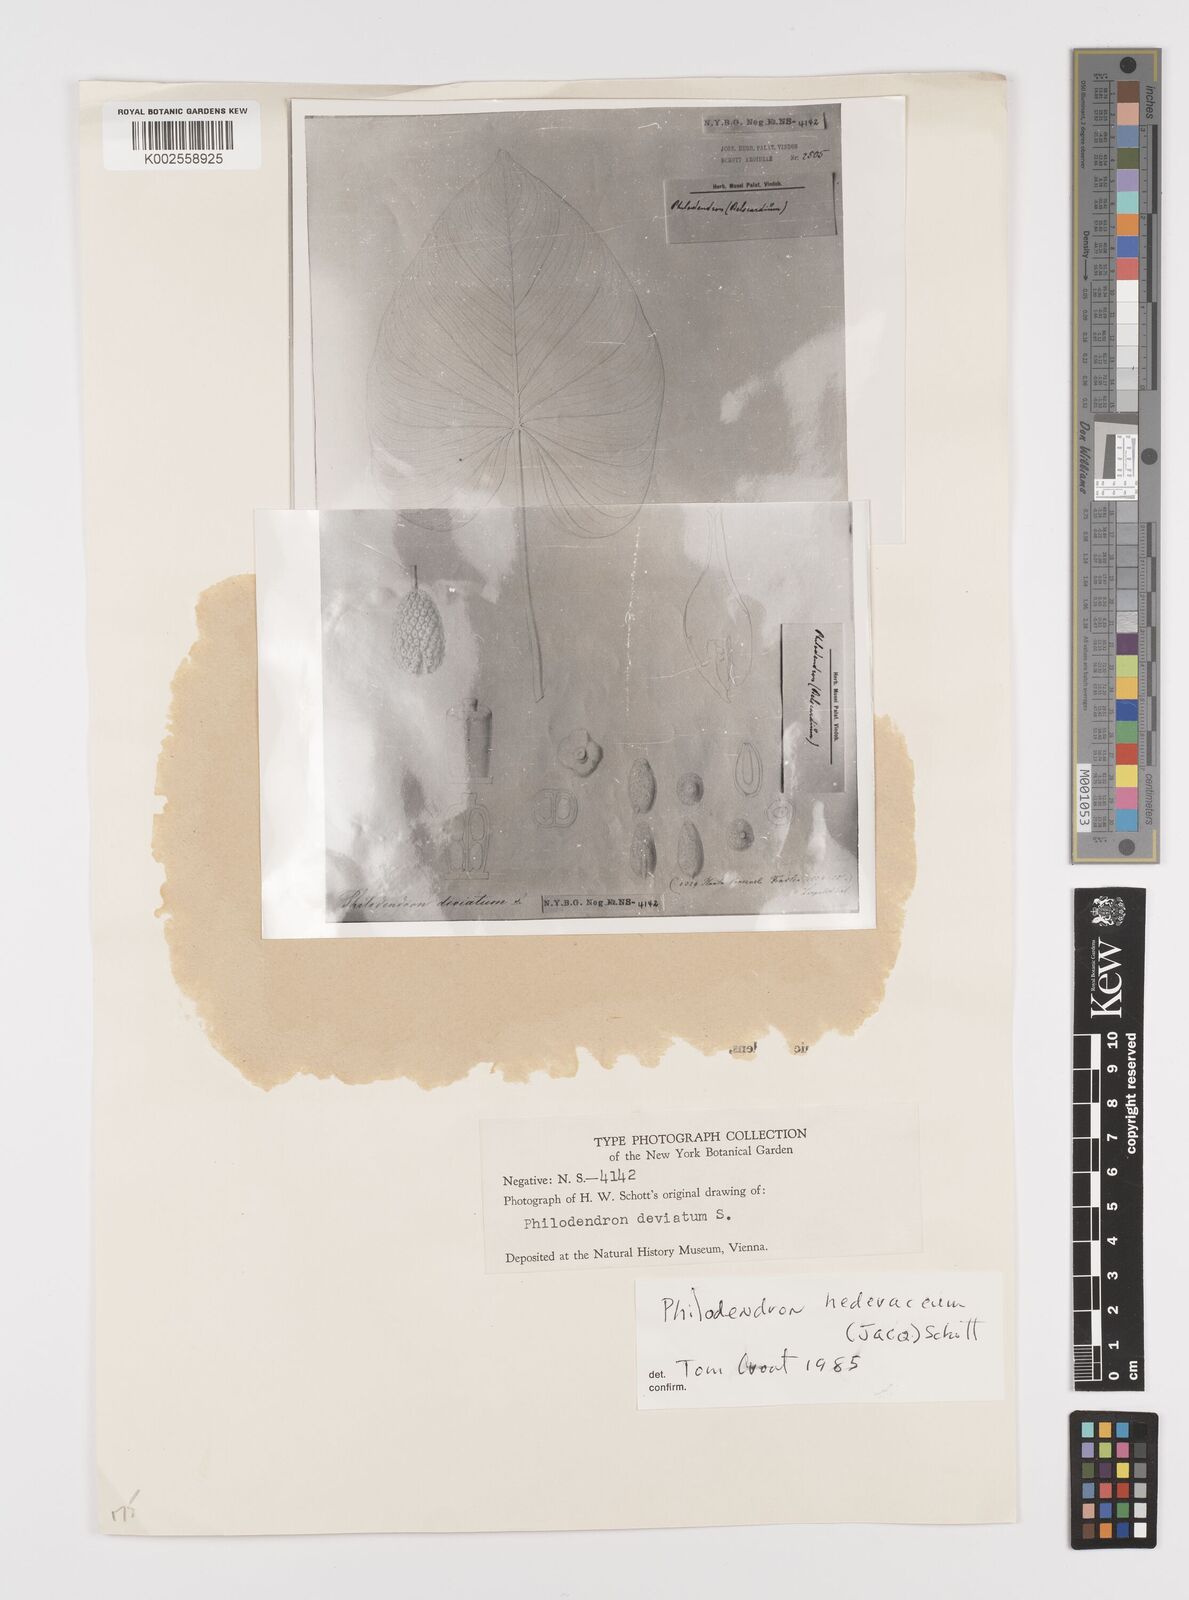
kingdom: Plantae
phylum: Tracheophyta
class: Liliopsida
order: Alismatales
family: Araceae
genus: Philodendron
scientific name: Philodendron hederaceum
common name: Vilevine
